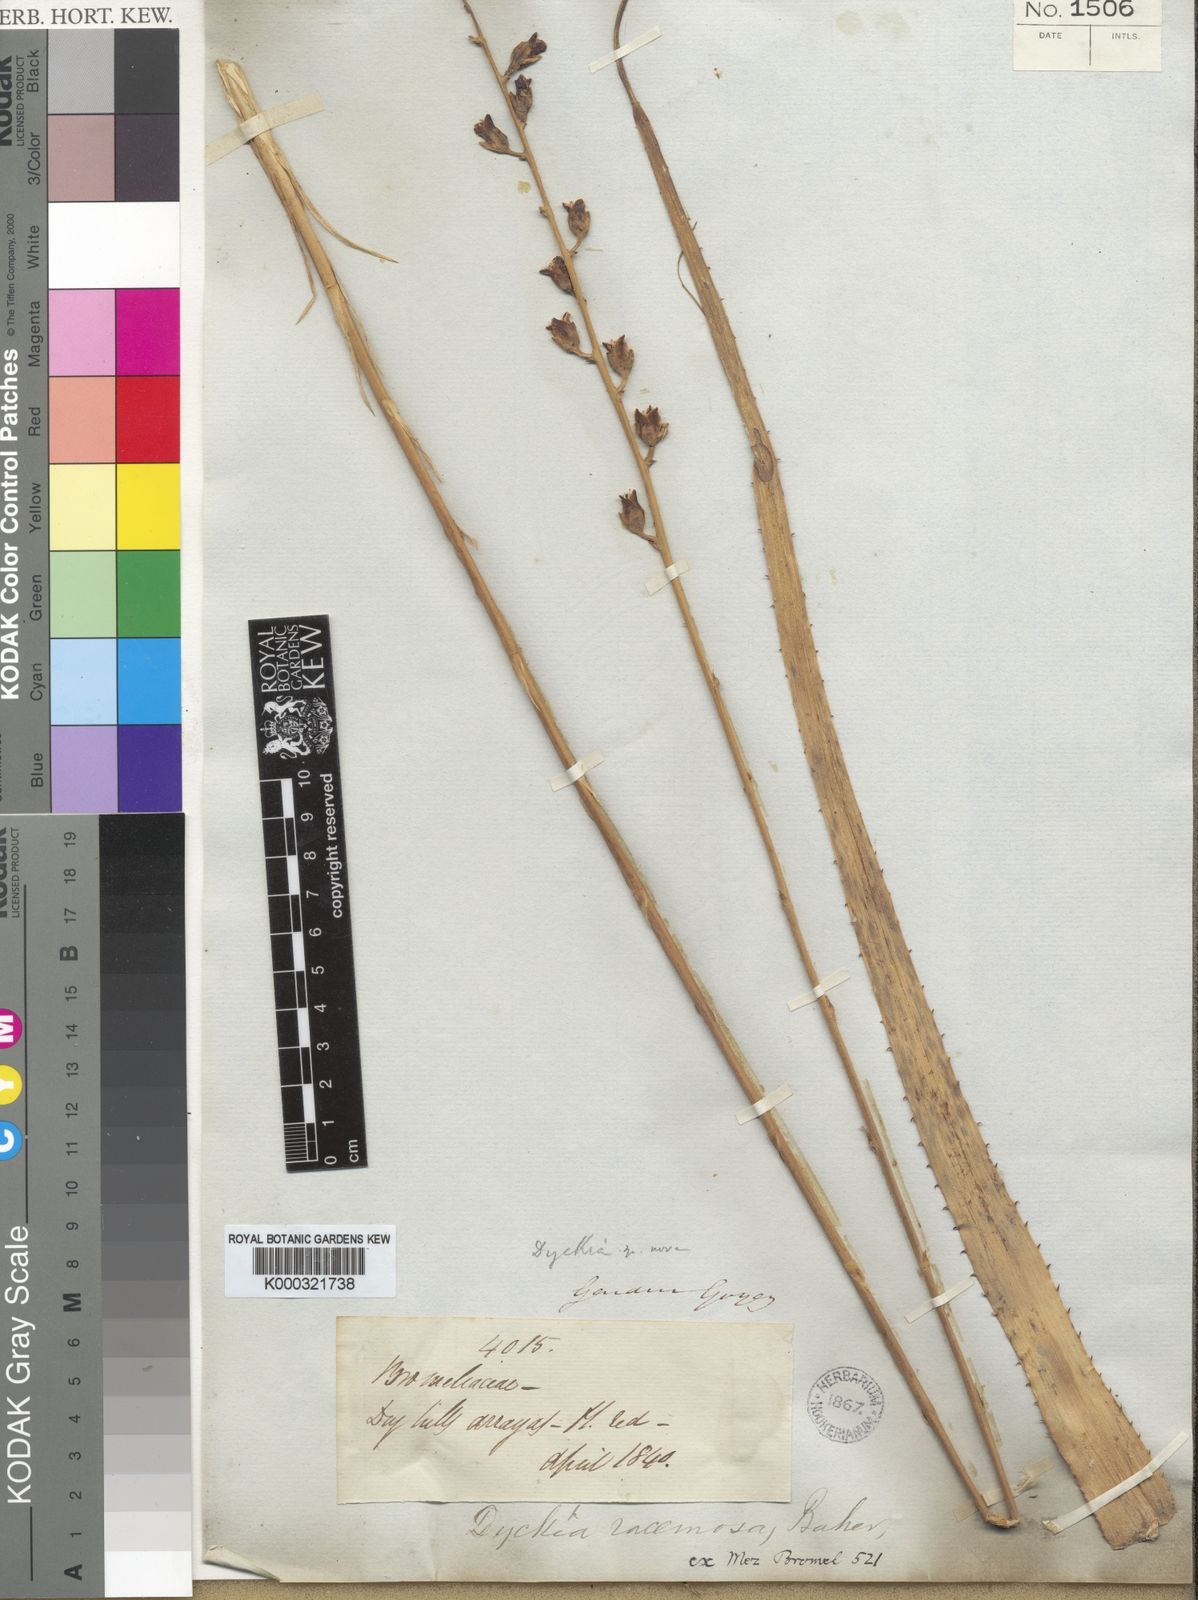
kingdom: Plantae
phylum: Tracheophyta
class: Liliopsida
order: Poales
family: Bromeliaceae
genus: Dyckia
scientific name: Dyckia racemosa
